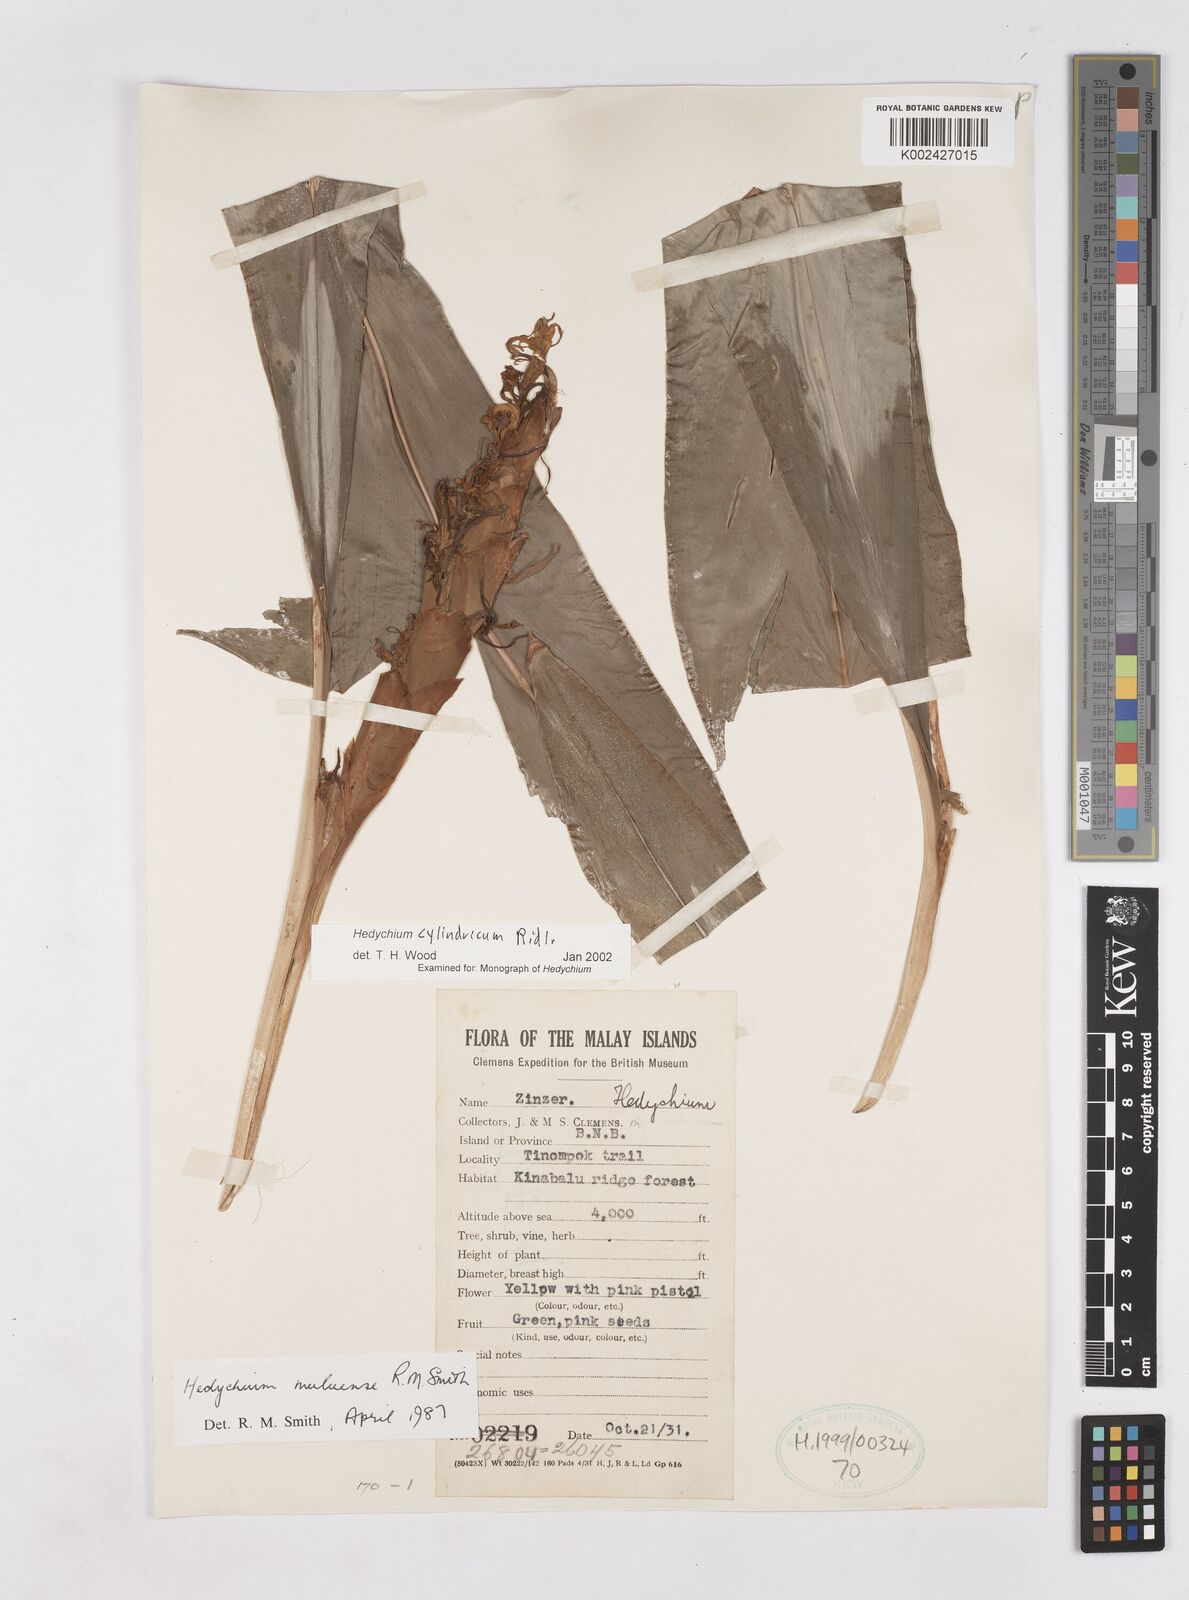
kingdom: Plantae
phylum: Tracheophyta
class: Liliopsida
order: Zingiberales
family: Zingiberaceae
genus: Hedychium
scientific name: Hedychium cylindricum
